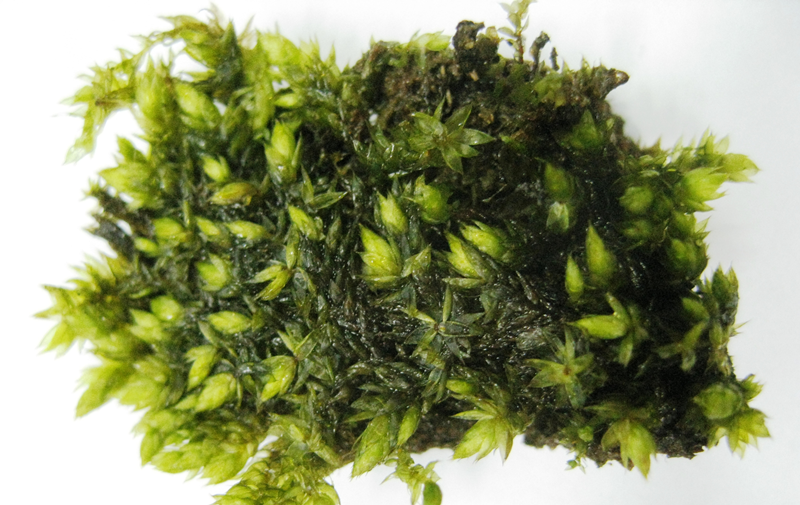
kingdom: Plantae
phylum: Bryophyta
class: Bryopsida
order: Bryales
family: Bryaceae
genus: Bryum
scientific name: Bryum
